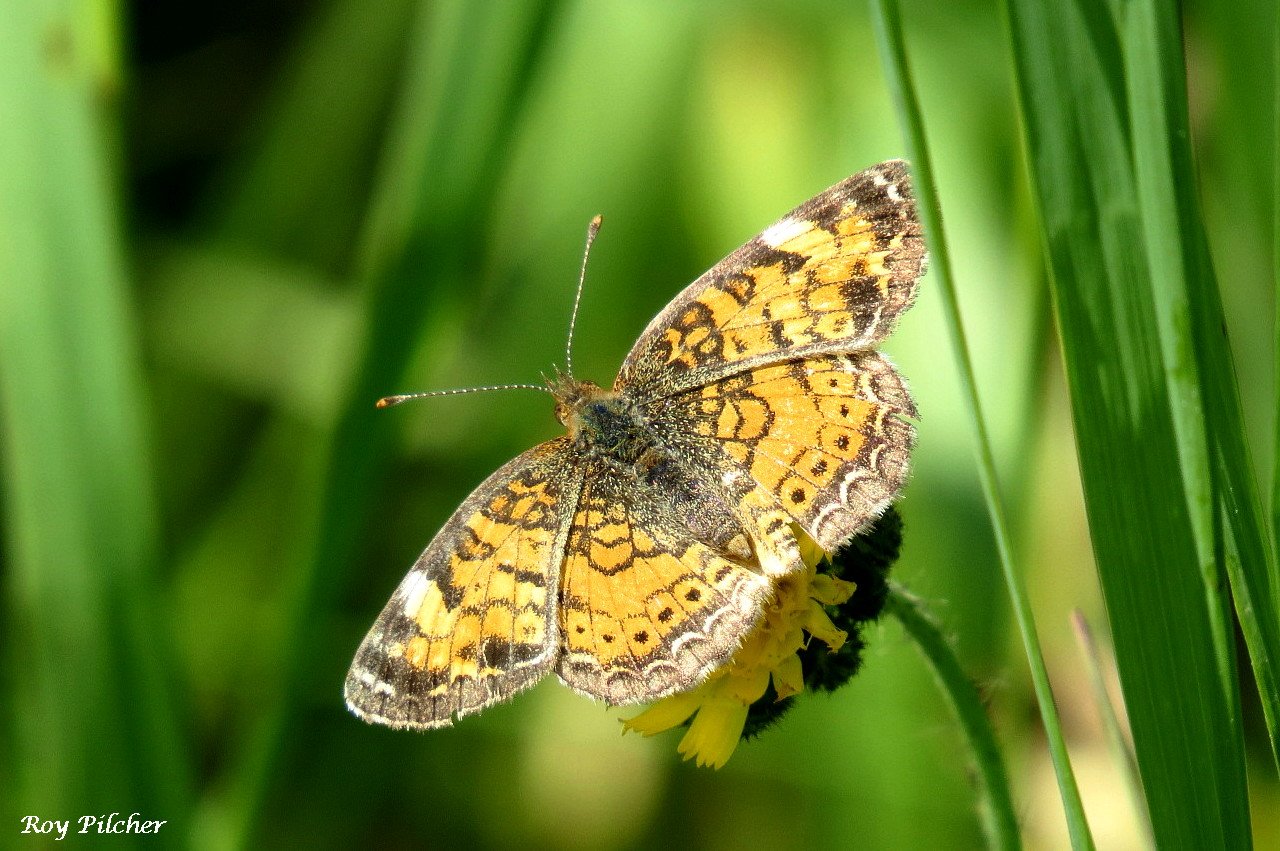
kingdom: Animalia
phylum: Arthropoda
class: Insecta
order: Lepidoptera
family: Nymphalidae
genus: Phyciodes
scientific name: Phyciodes tharos
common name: Pearl Crescent
